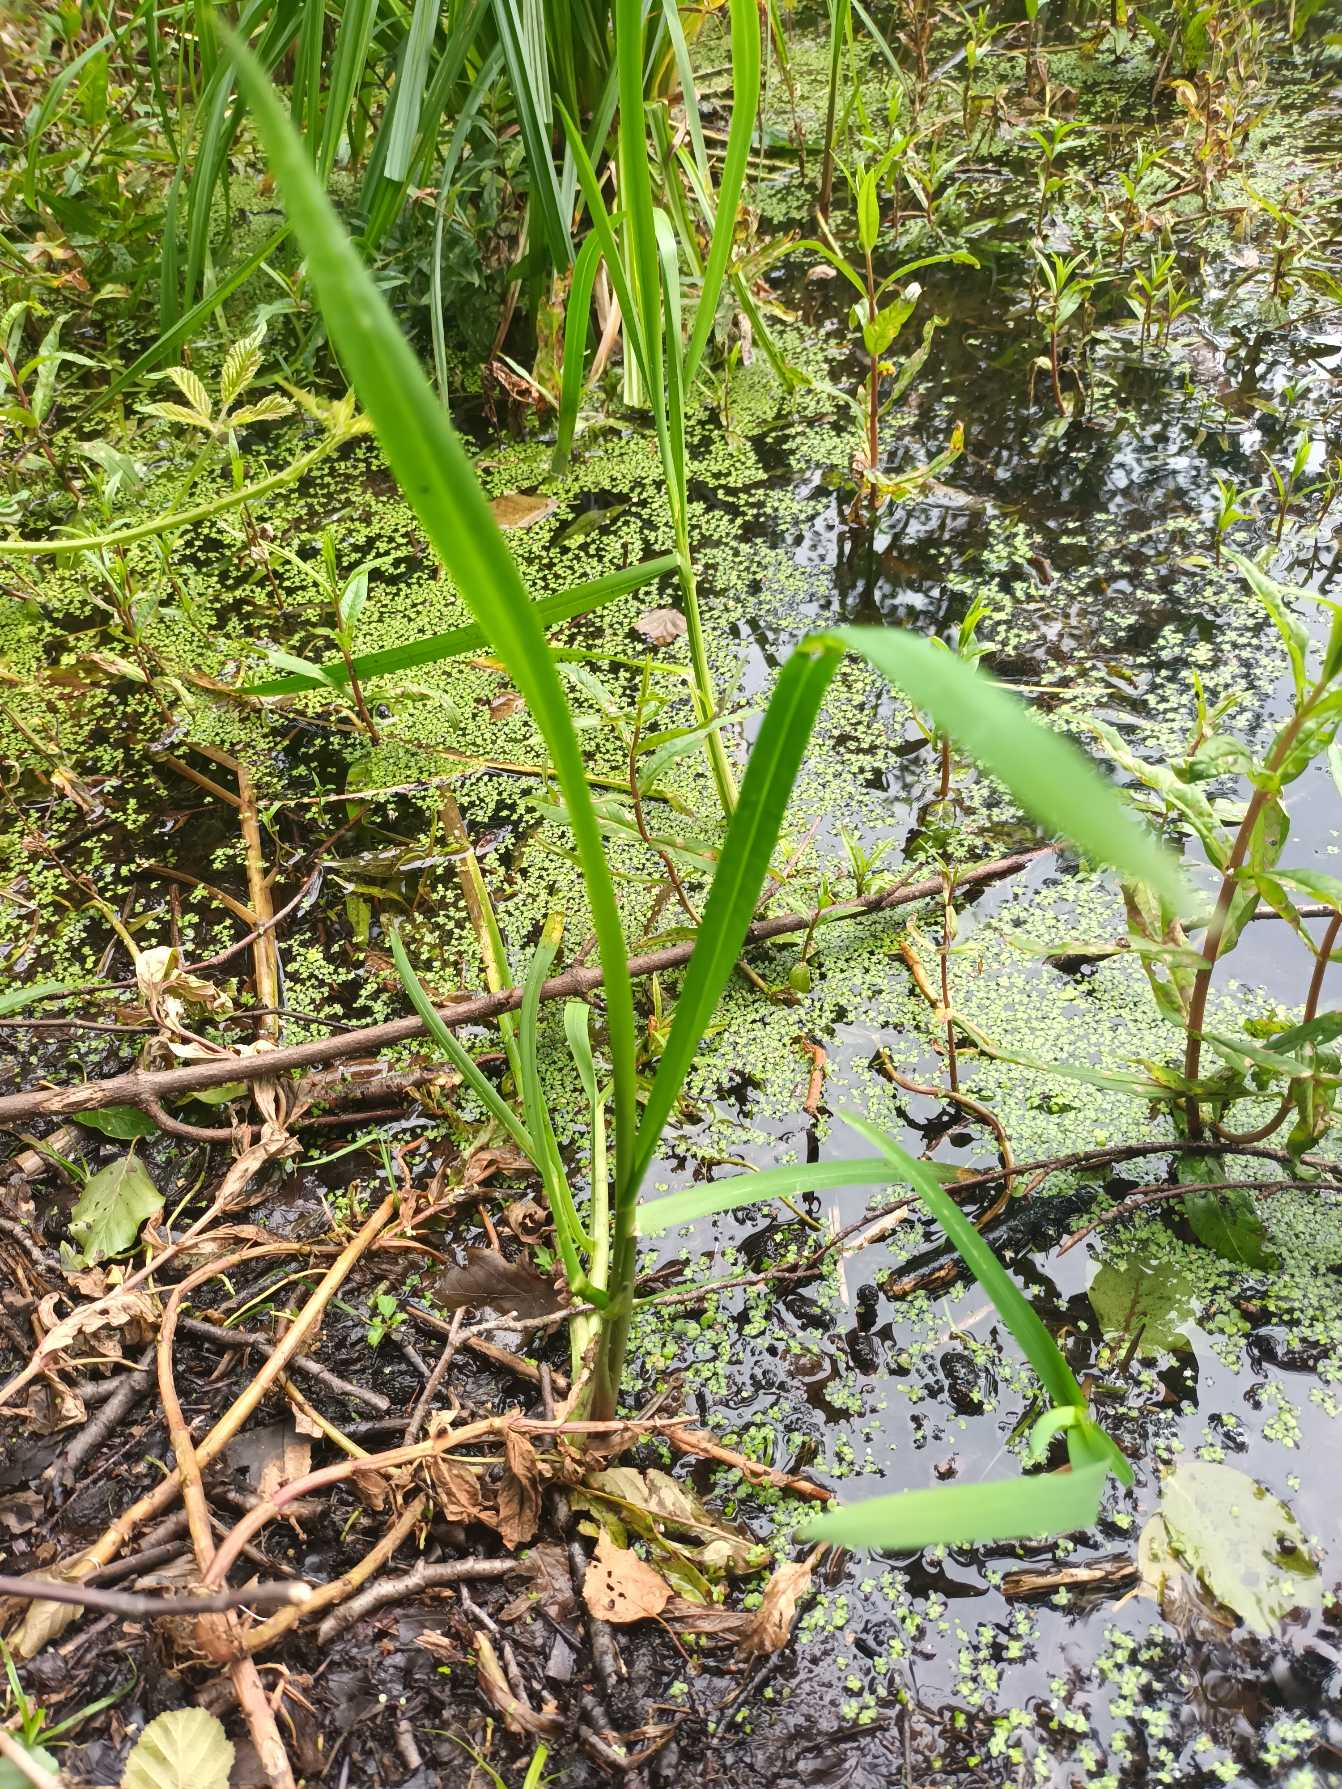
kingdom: Plantae
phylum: Tracheophyta
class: Liliopsida
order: Poales
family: Poaceae
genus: Glyceria
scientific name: Glyceria maxima
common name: Høj sødgræs
